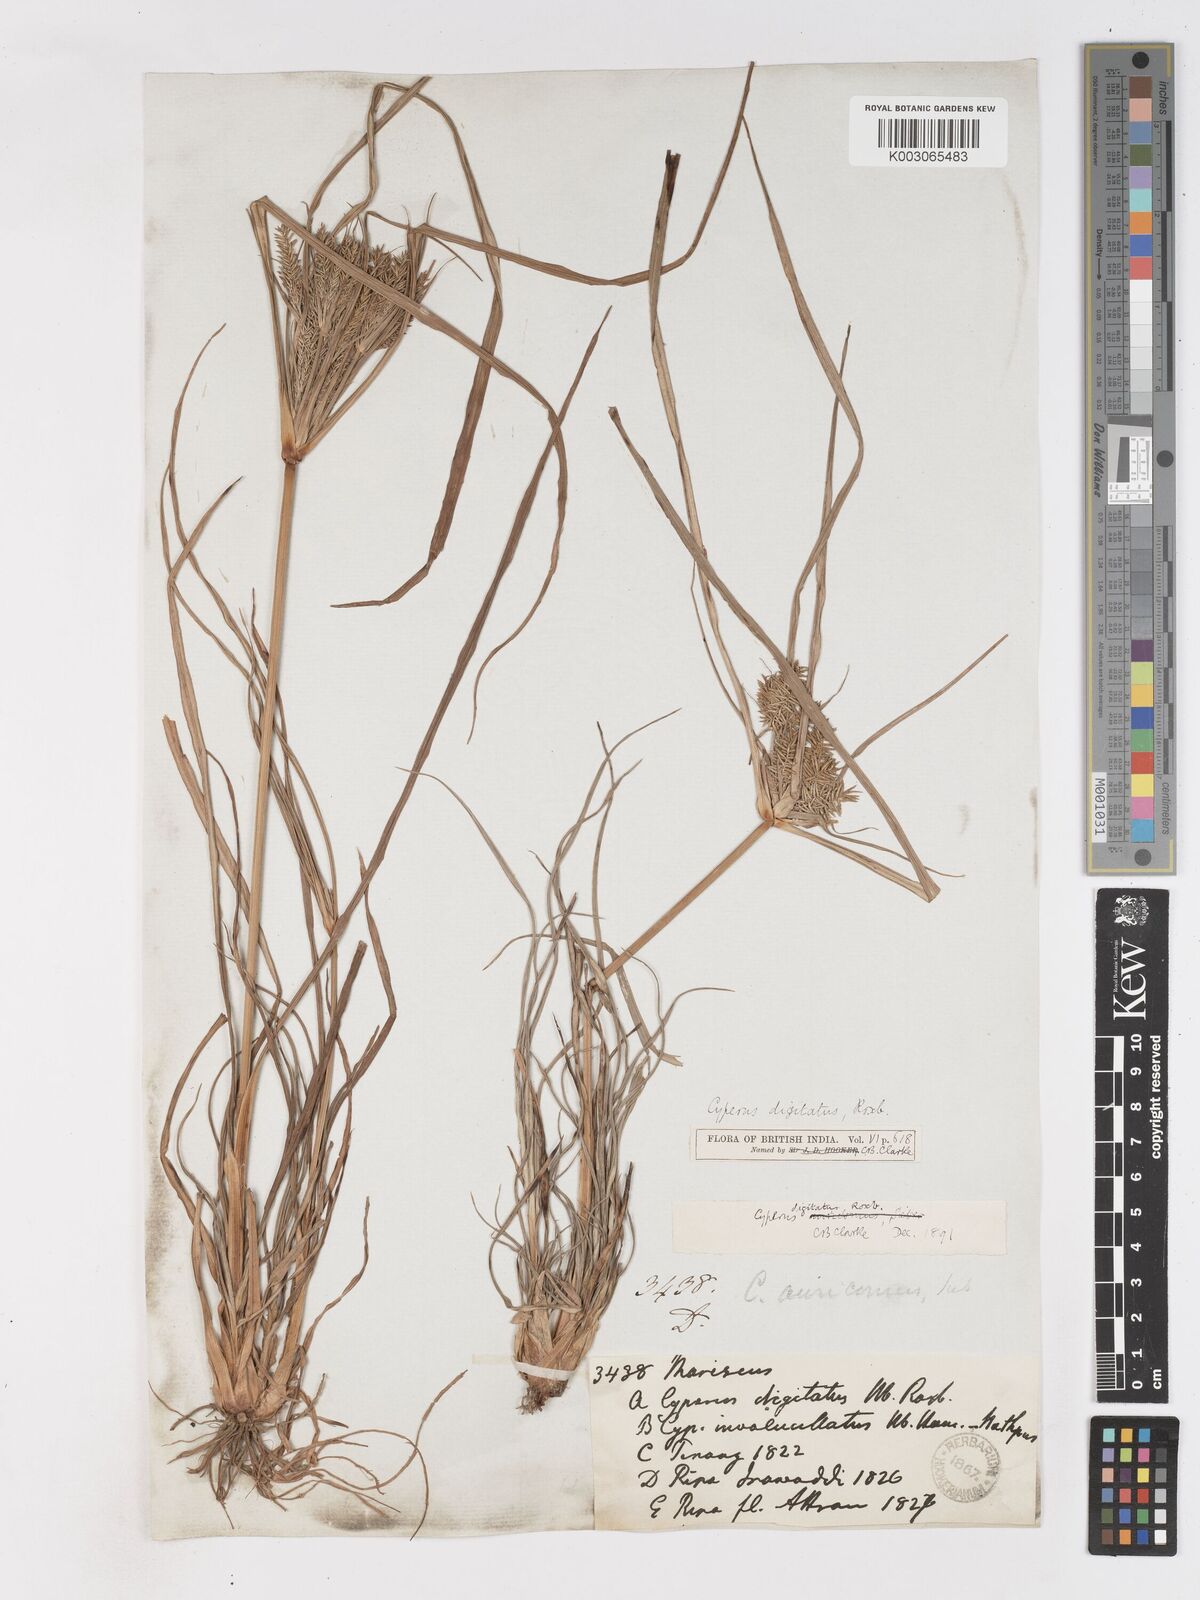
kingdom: Plantae
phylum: Tracheophyta
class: Liliopsida
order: Poales
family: Cyperaceae
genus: Cyperus
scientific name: Cyperus digitatus
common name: Finger flatsedge
